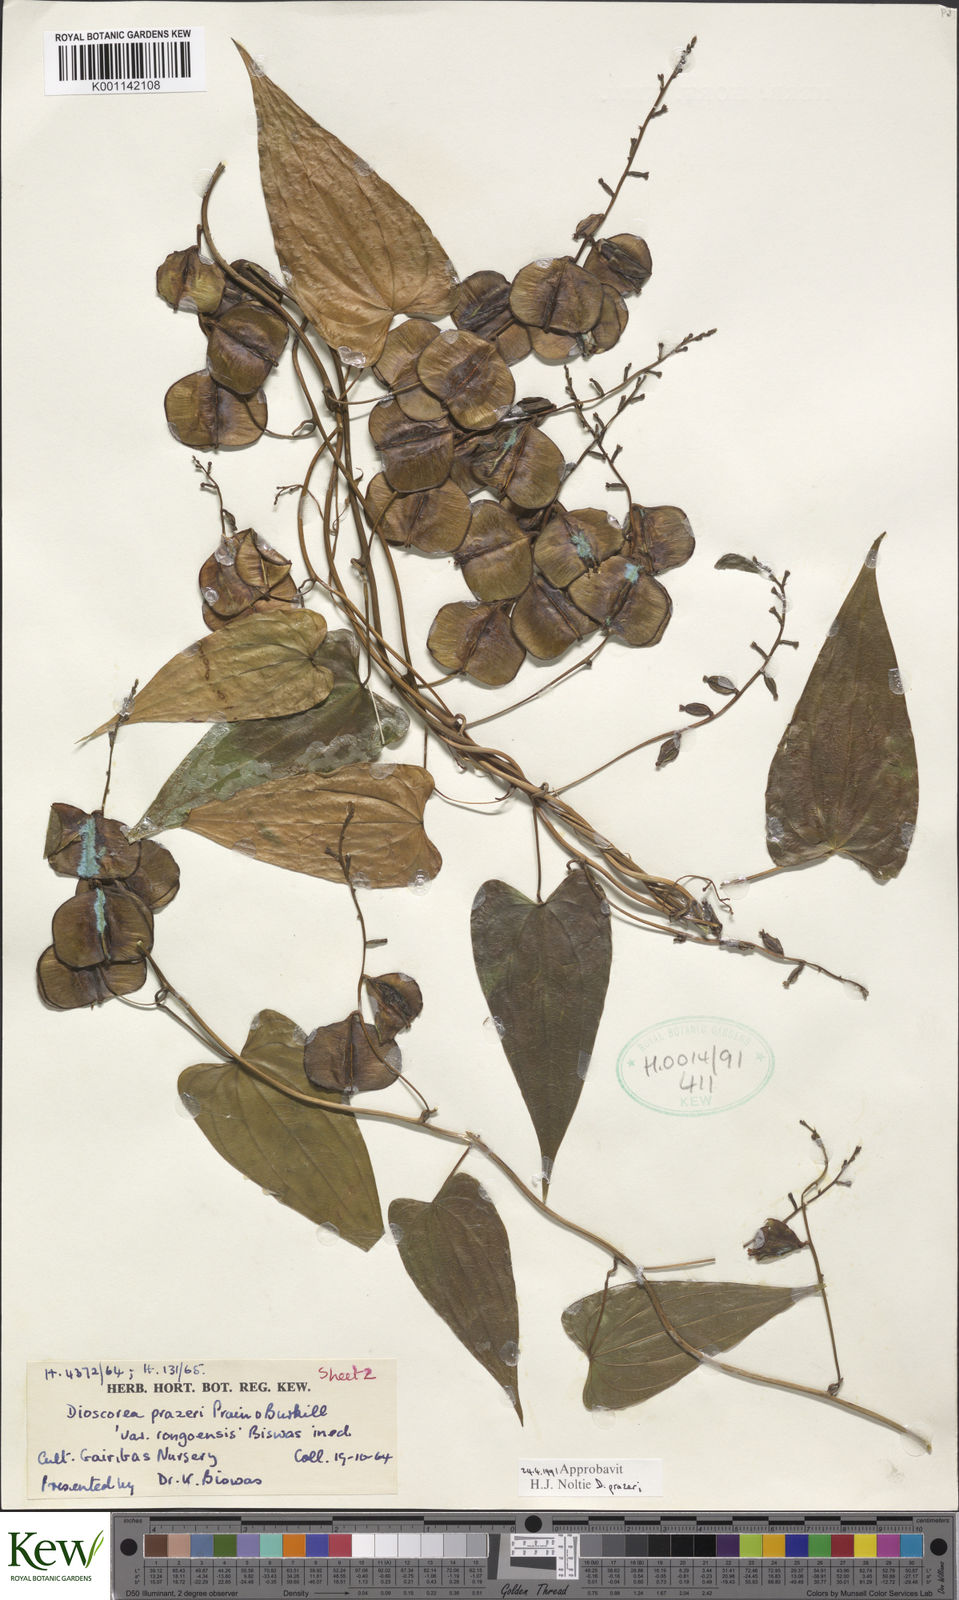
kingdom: Plantae
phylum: Tracheophyta
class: Liliopsida
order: Dioscoreales
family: Dioscoreaceae
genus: Dioscorea
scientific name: Dioscorea prazeri
